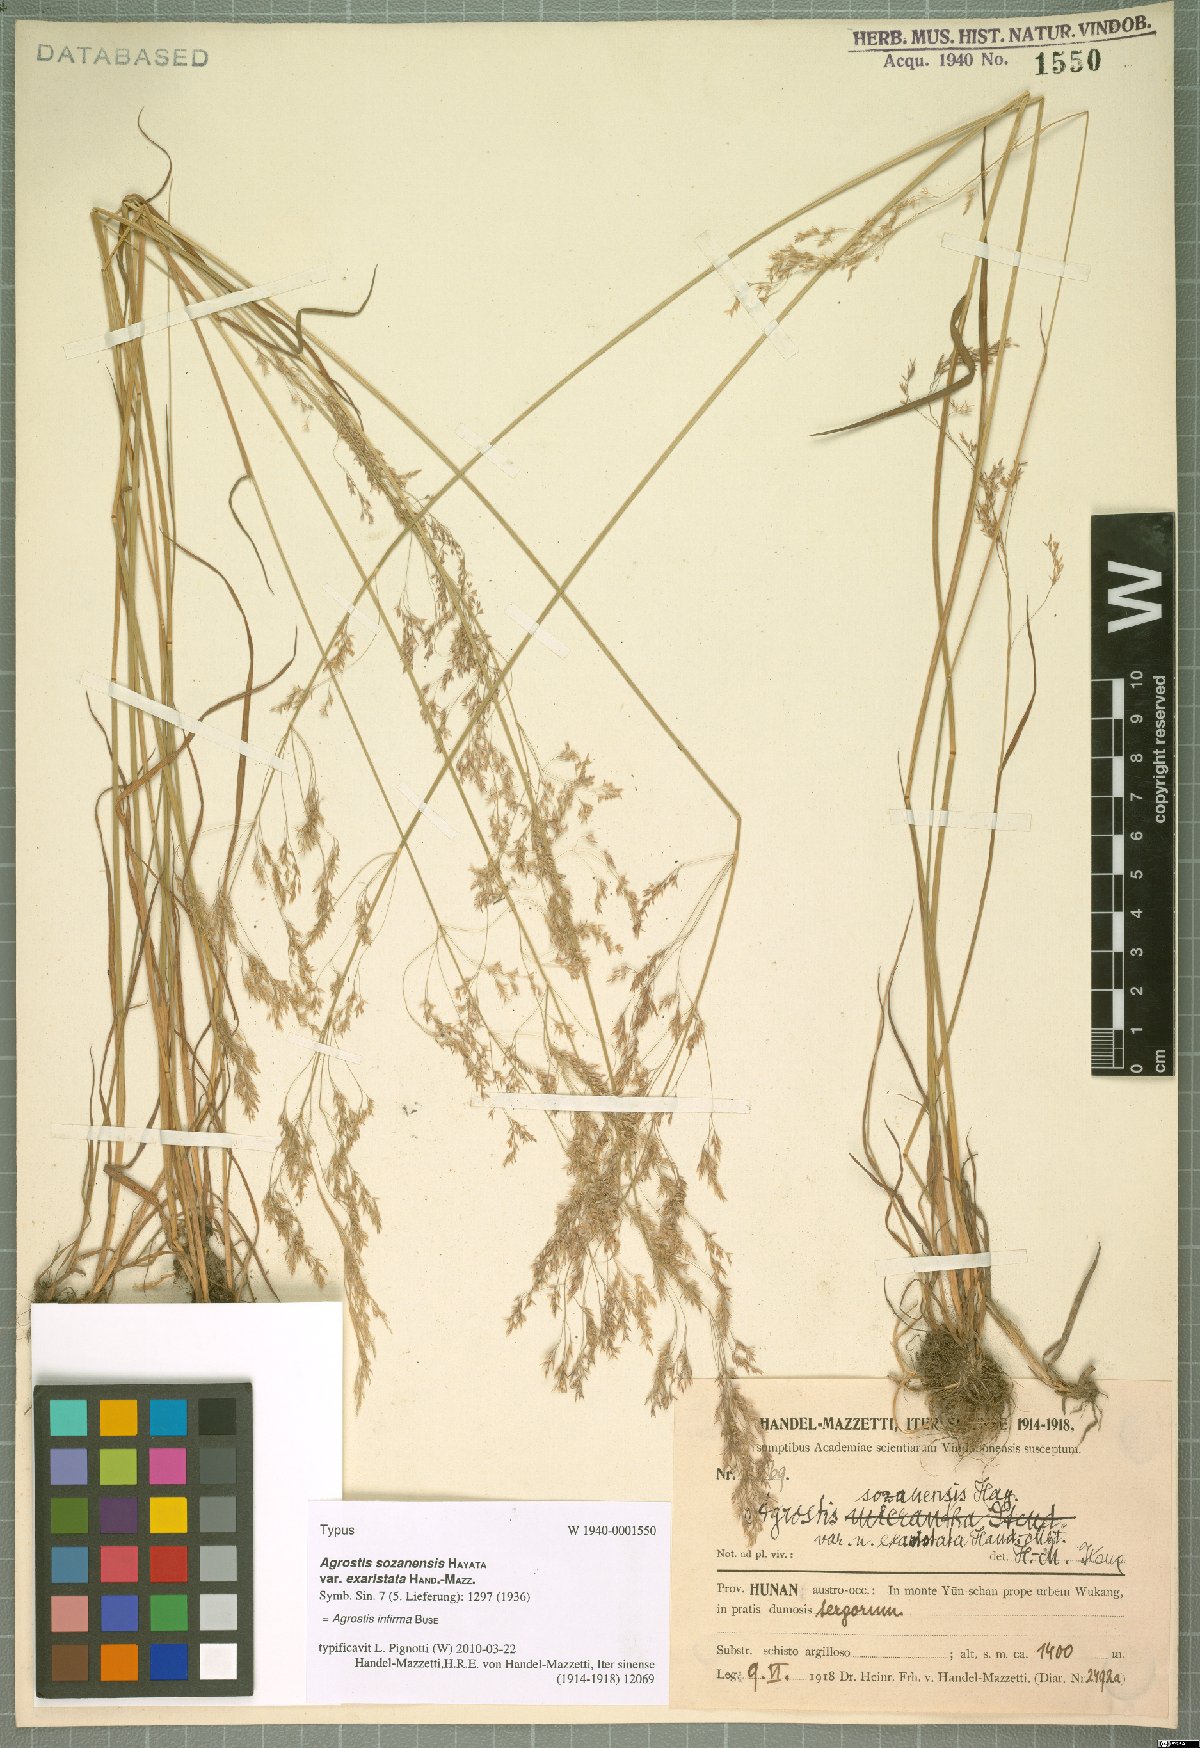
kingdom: Plantae
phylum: Tracheophyta
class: Liliopsida
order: Poales
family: Poaceae
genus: Polypogon
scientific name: Polypogon magellanicus
